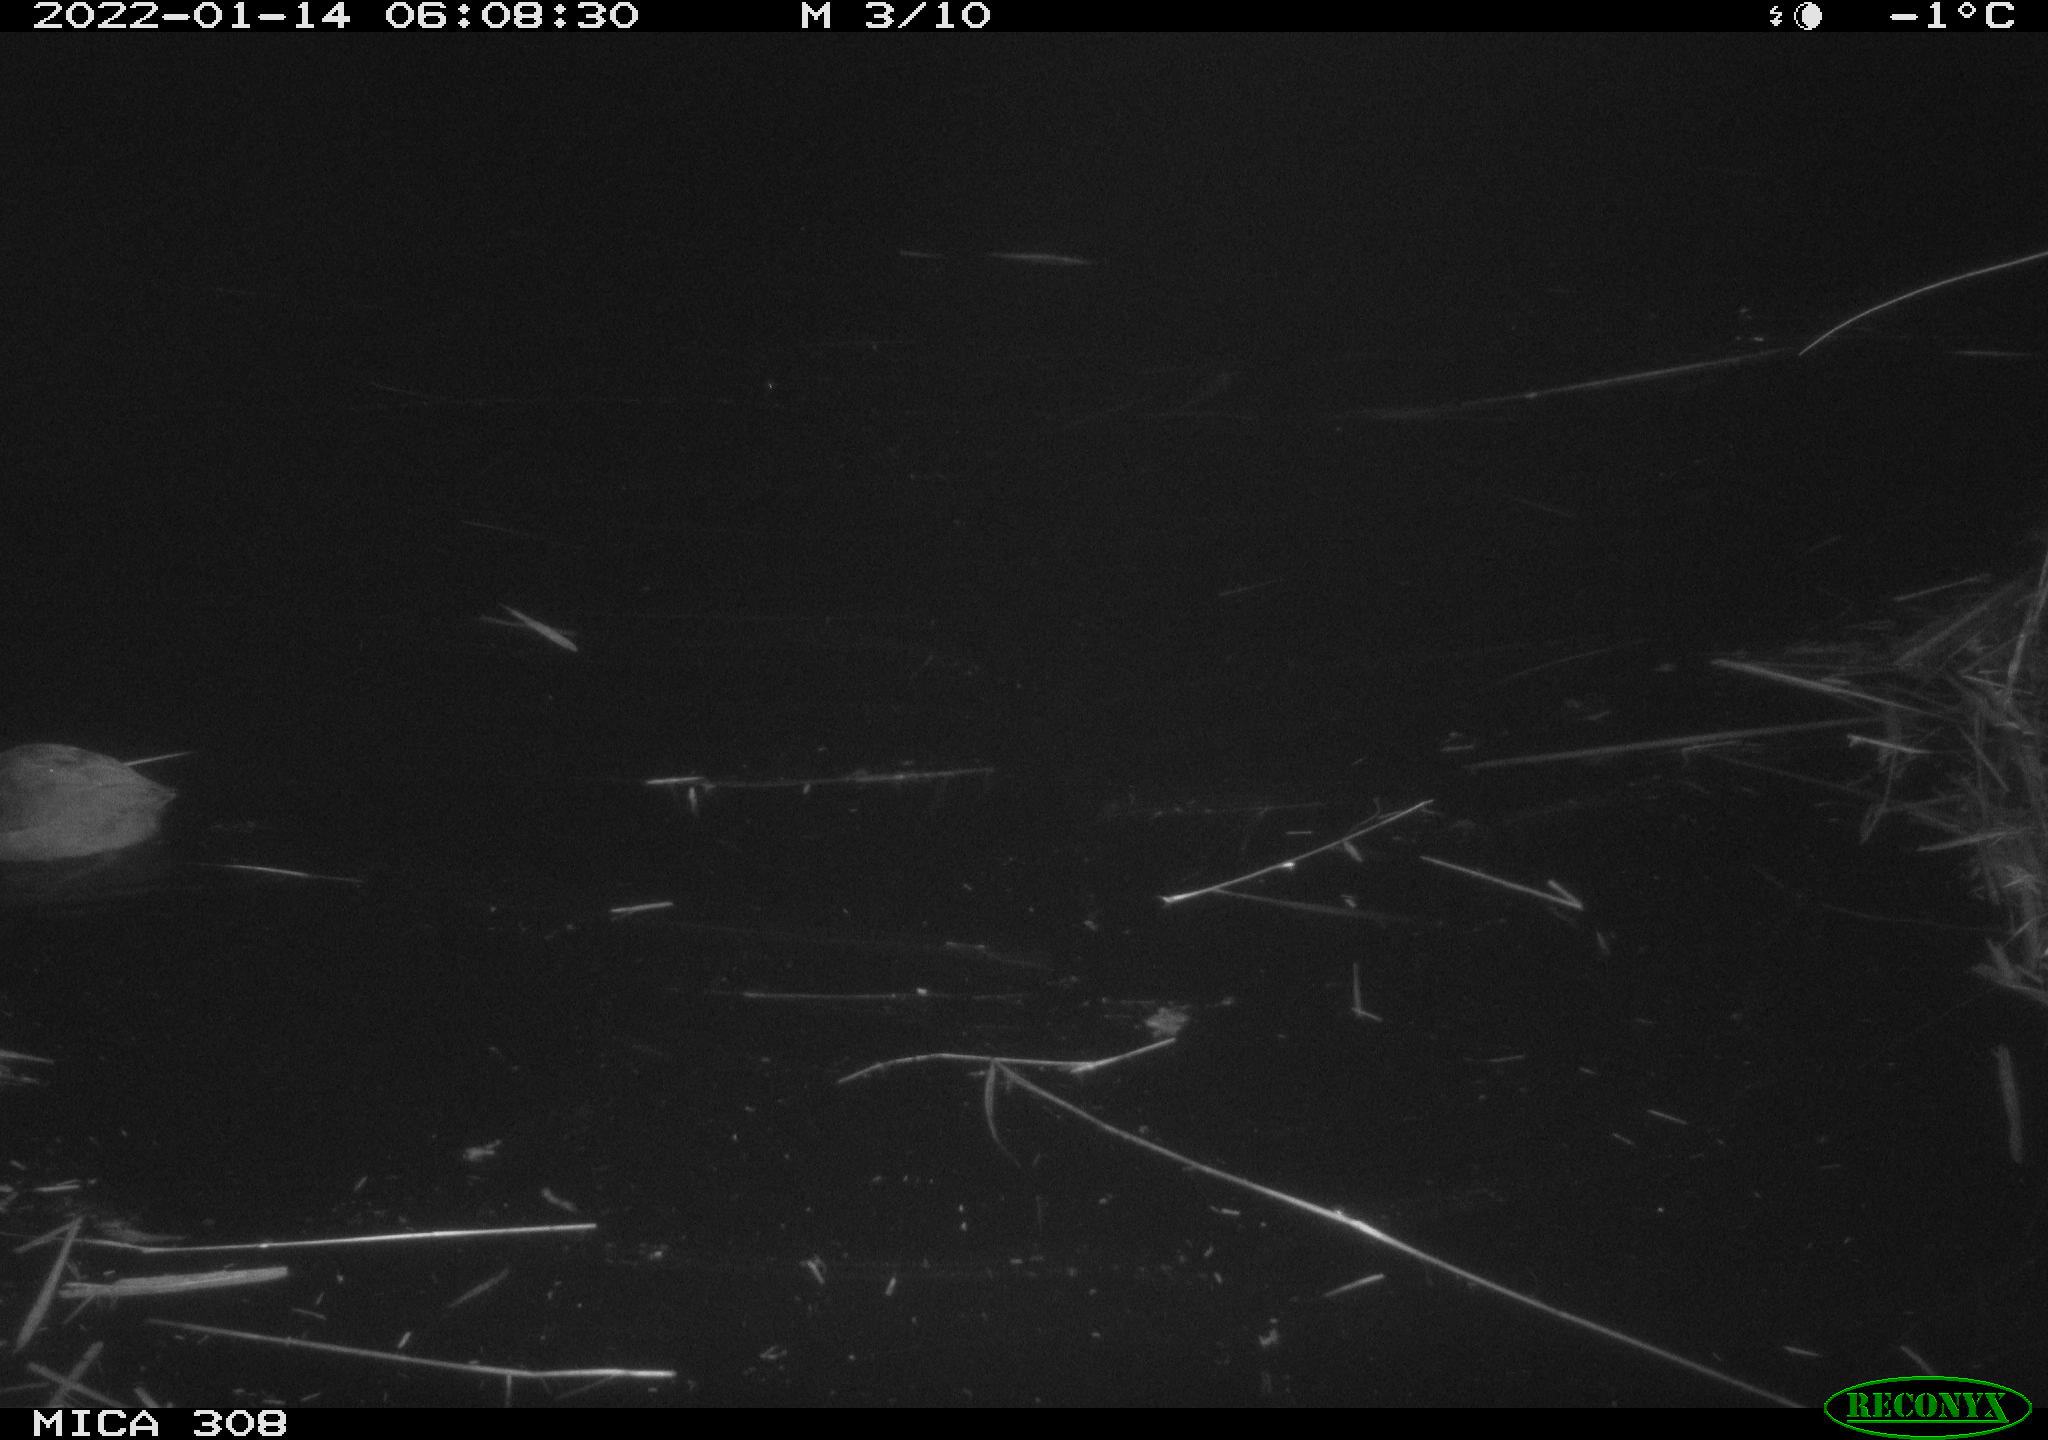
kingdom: Animalia
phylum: Chordata
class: Aves
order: Gruiformes
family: Rallidae
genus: Fulica
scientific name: Fulica atra
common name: Eurasian coot
